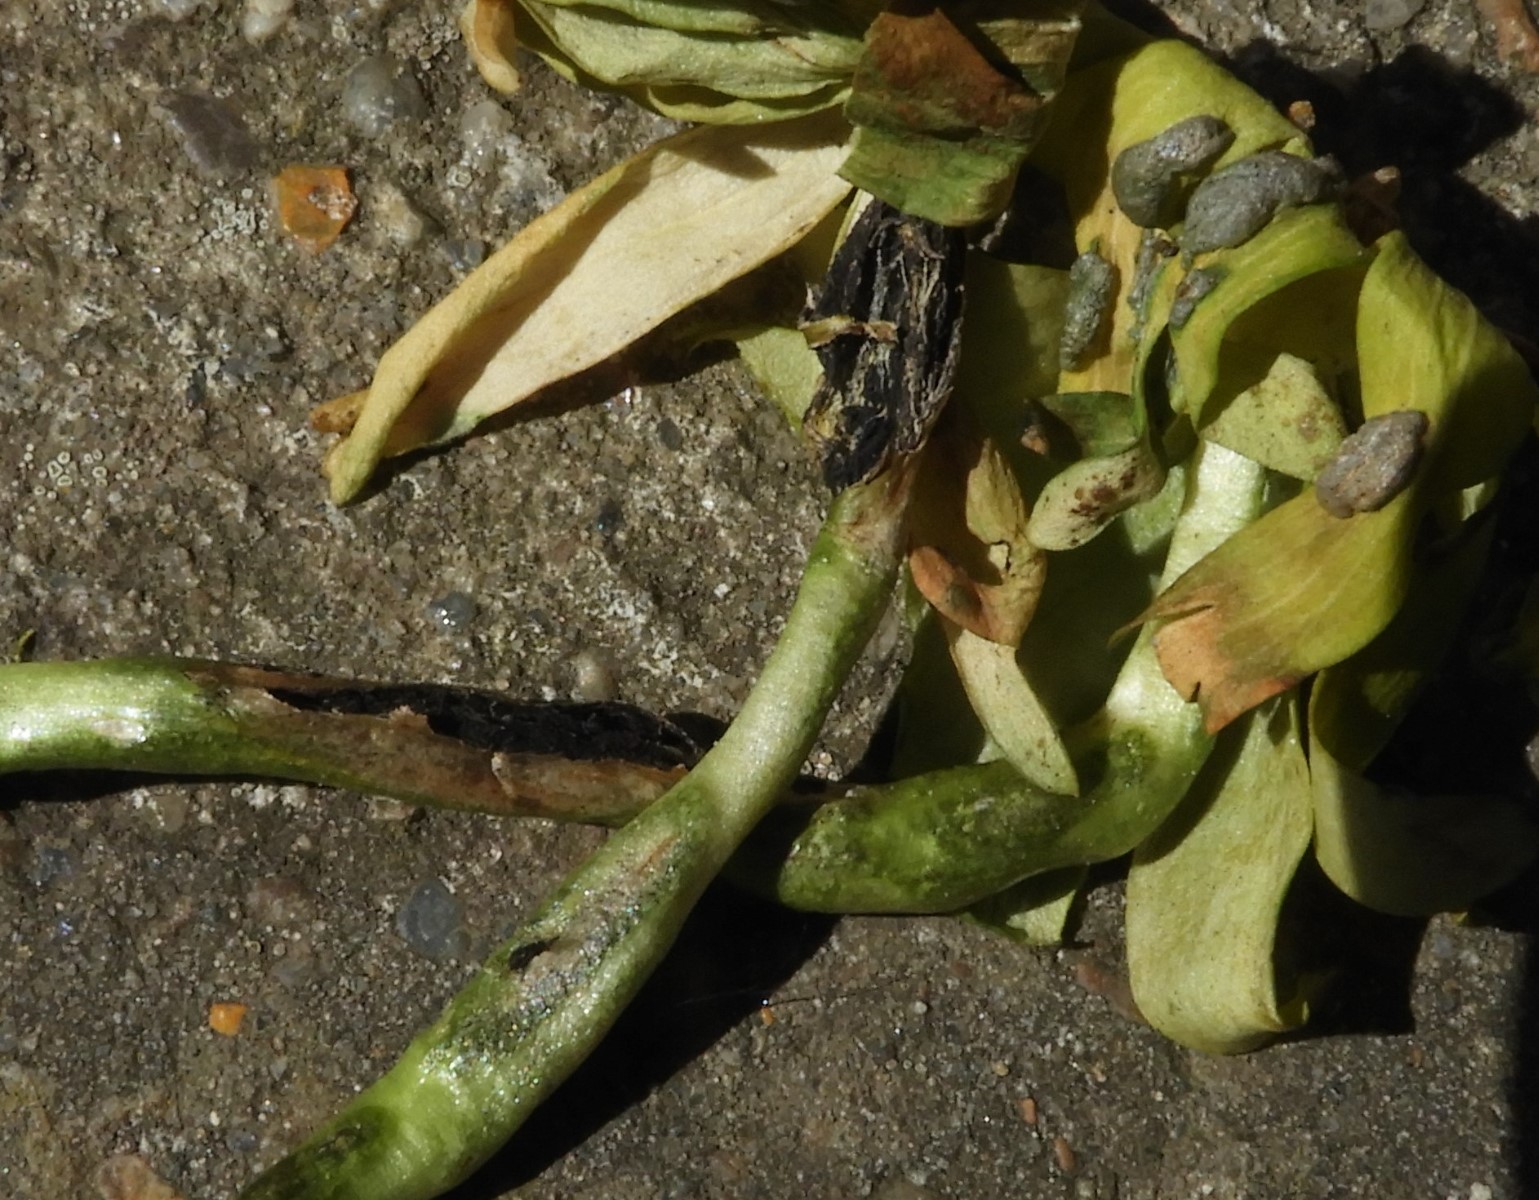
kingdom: Fungi
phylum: Basidiomycota
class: Ustilaginomycetes
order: Urocystidales
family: Urocystidaceae
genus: Urocystis
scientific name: Urocystis eranthidis
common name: erantis-brand
